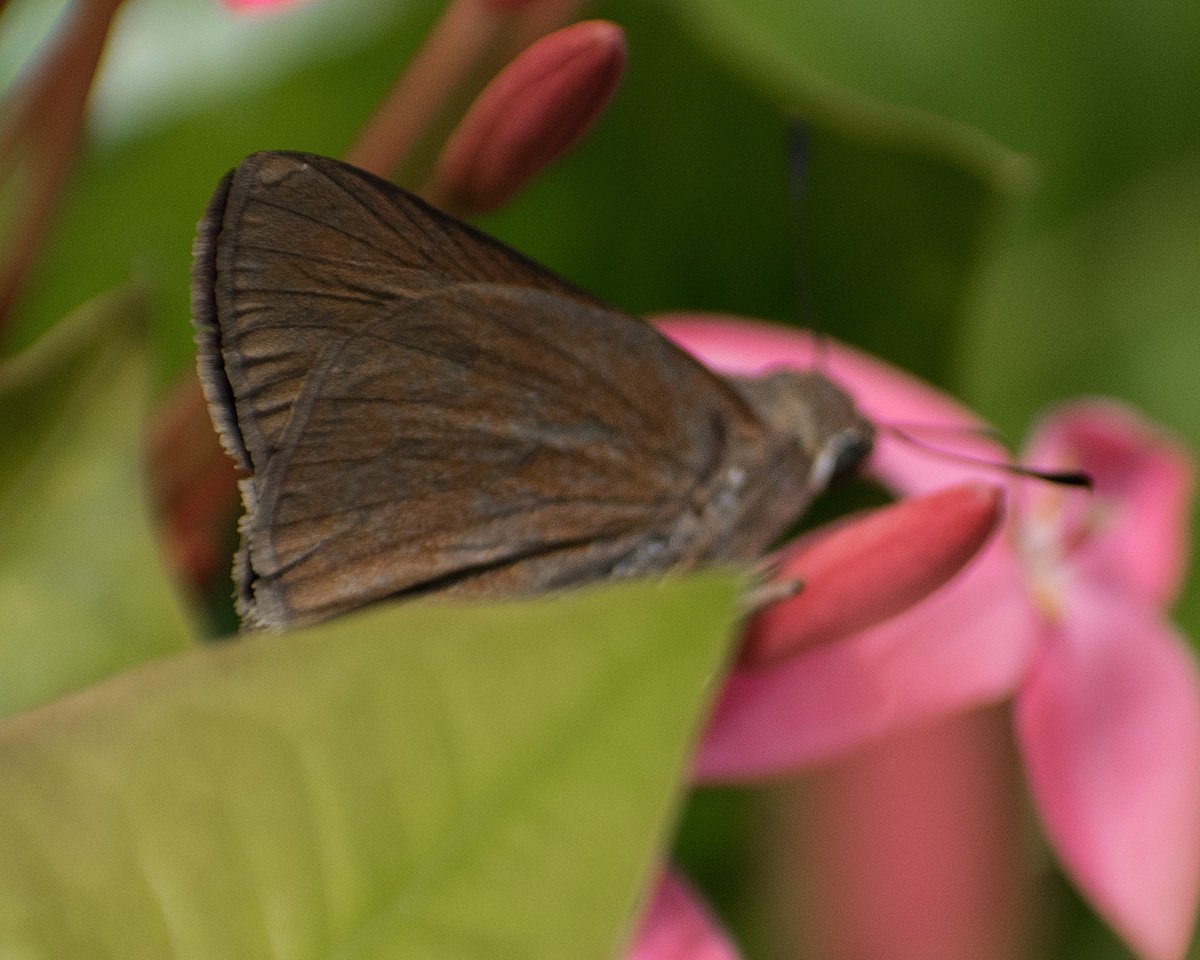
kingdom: Animalia
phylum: Arthropoda
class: Insecta
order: Lepidoptera
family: Hesperiidae
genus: Asbolis
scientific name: Asbolis capucinus
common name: Monk Skipper
